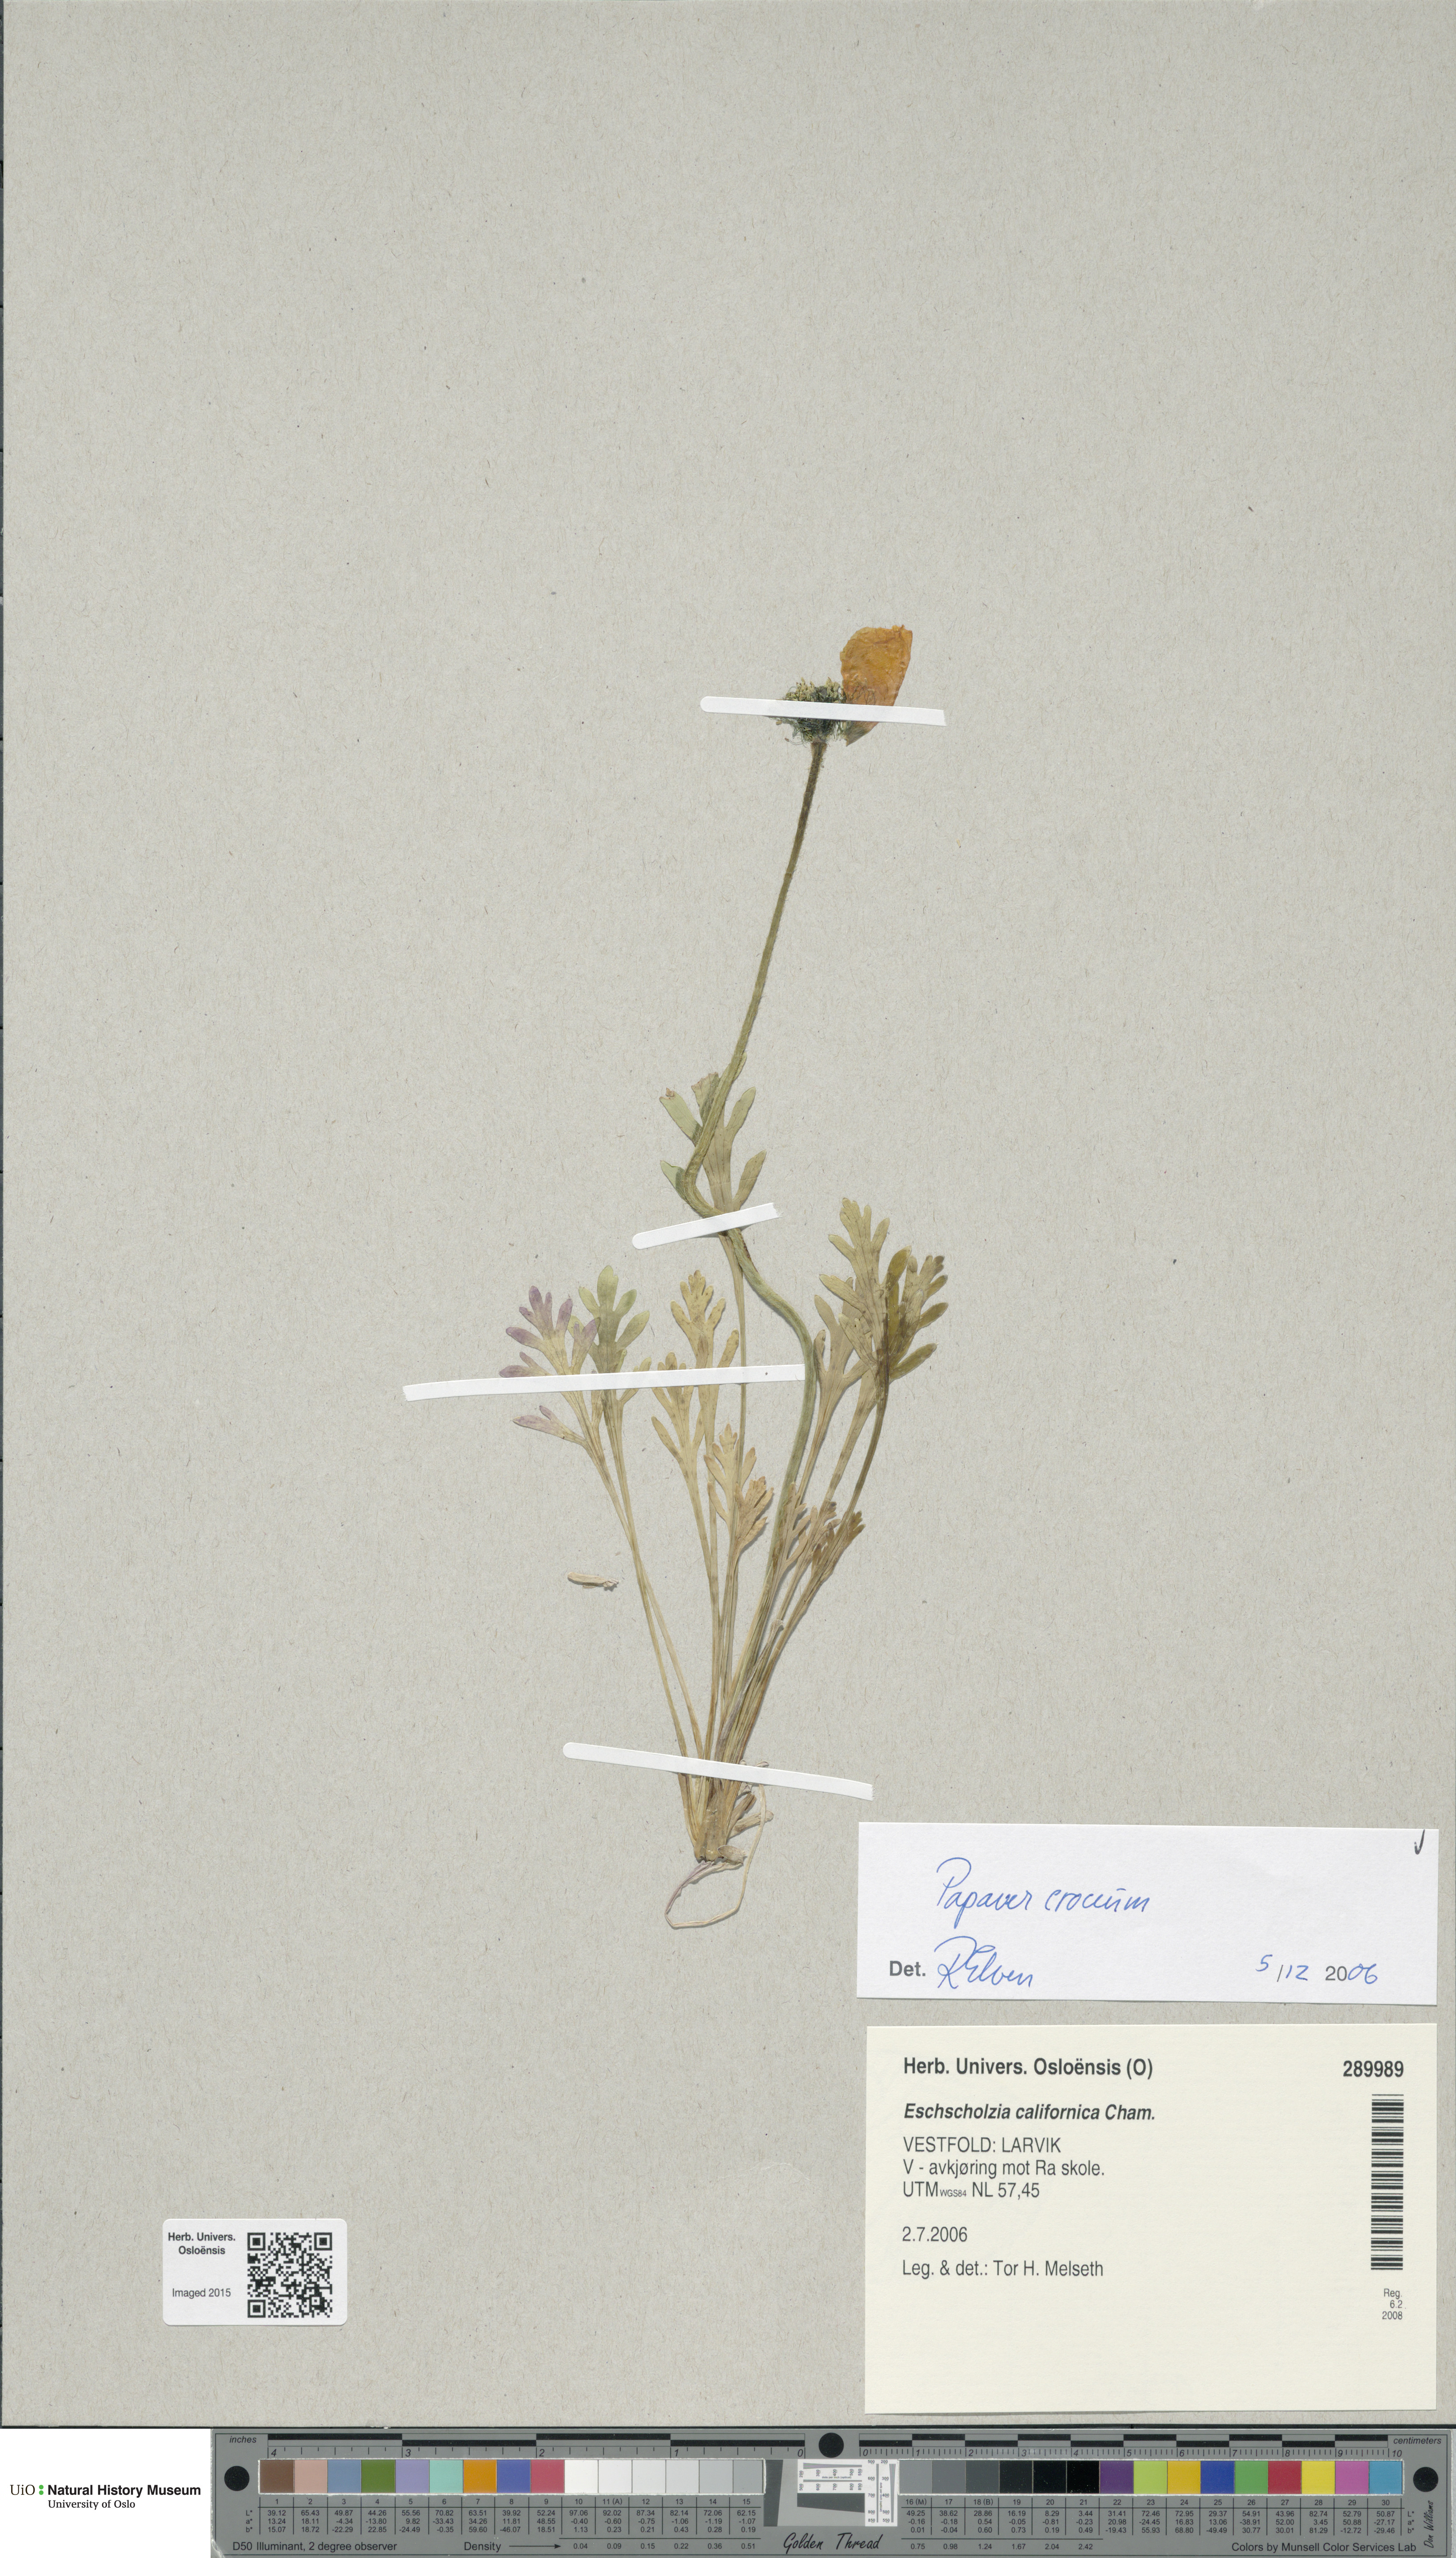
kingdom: Plantae
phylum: Tracheophyta
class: Magnoliopsida
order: Ranunculales
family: Papaveraceae
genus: Papaver
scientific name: Papaver croceum
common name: Siberian poppy
